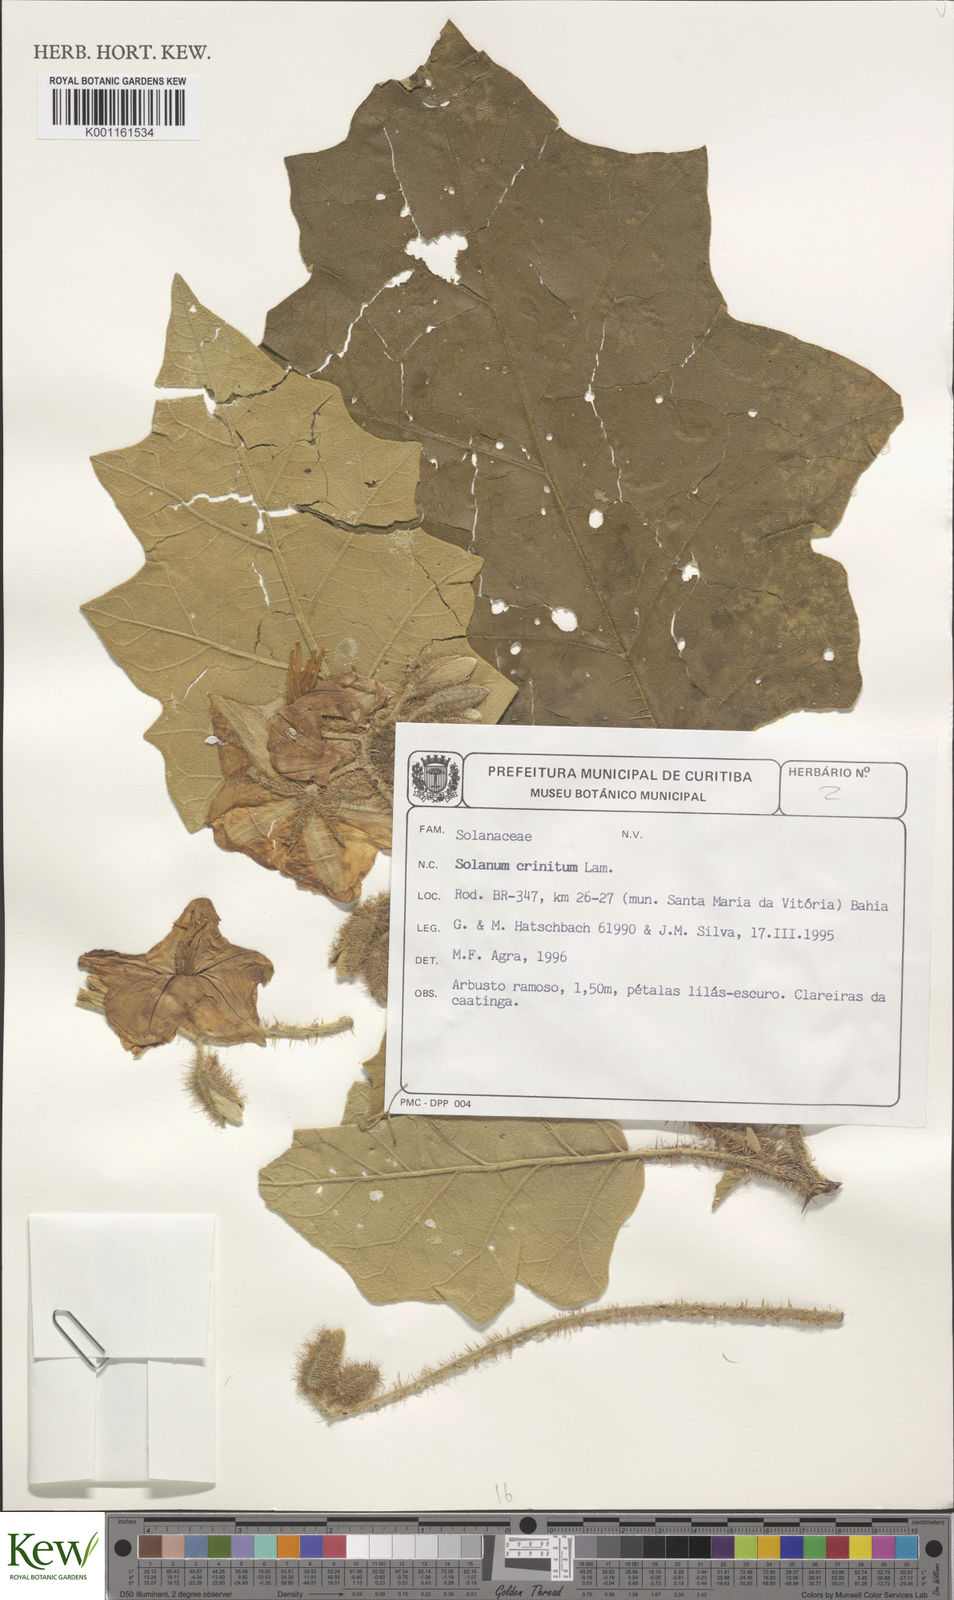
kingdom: Plantae
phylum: Tracheophyta
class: Magnoliopsida
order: Solanales
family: Solanaceae
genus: Solanum
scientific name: Solanum crinitum
